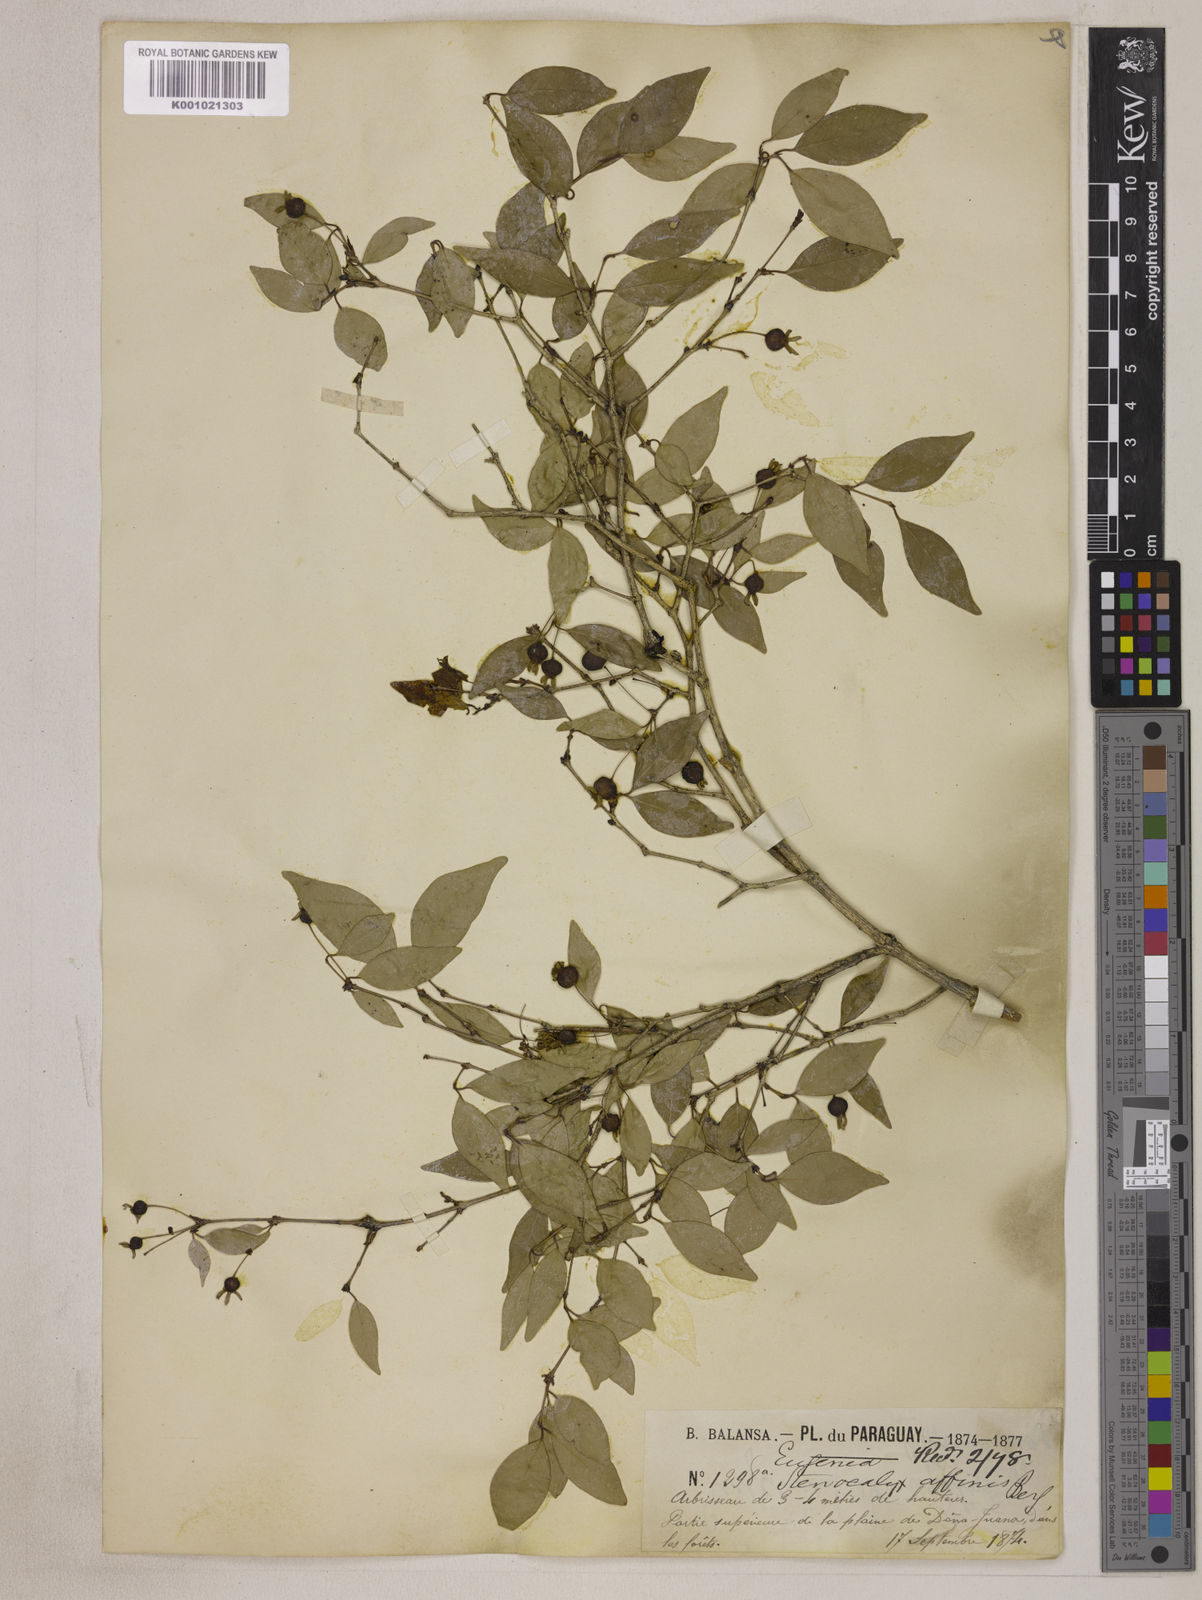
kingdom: Plantae
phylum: Tracheophyta
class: Magnoliopsida
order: Myrtales
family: Myrtaceae
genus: Eugenia
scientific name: Eugenia uniflora
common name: Surinam cherry
